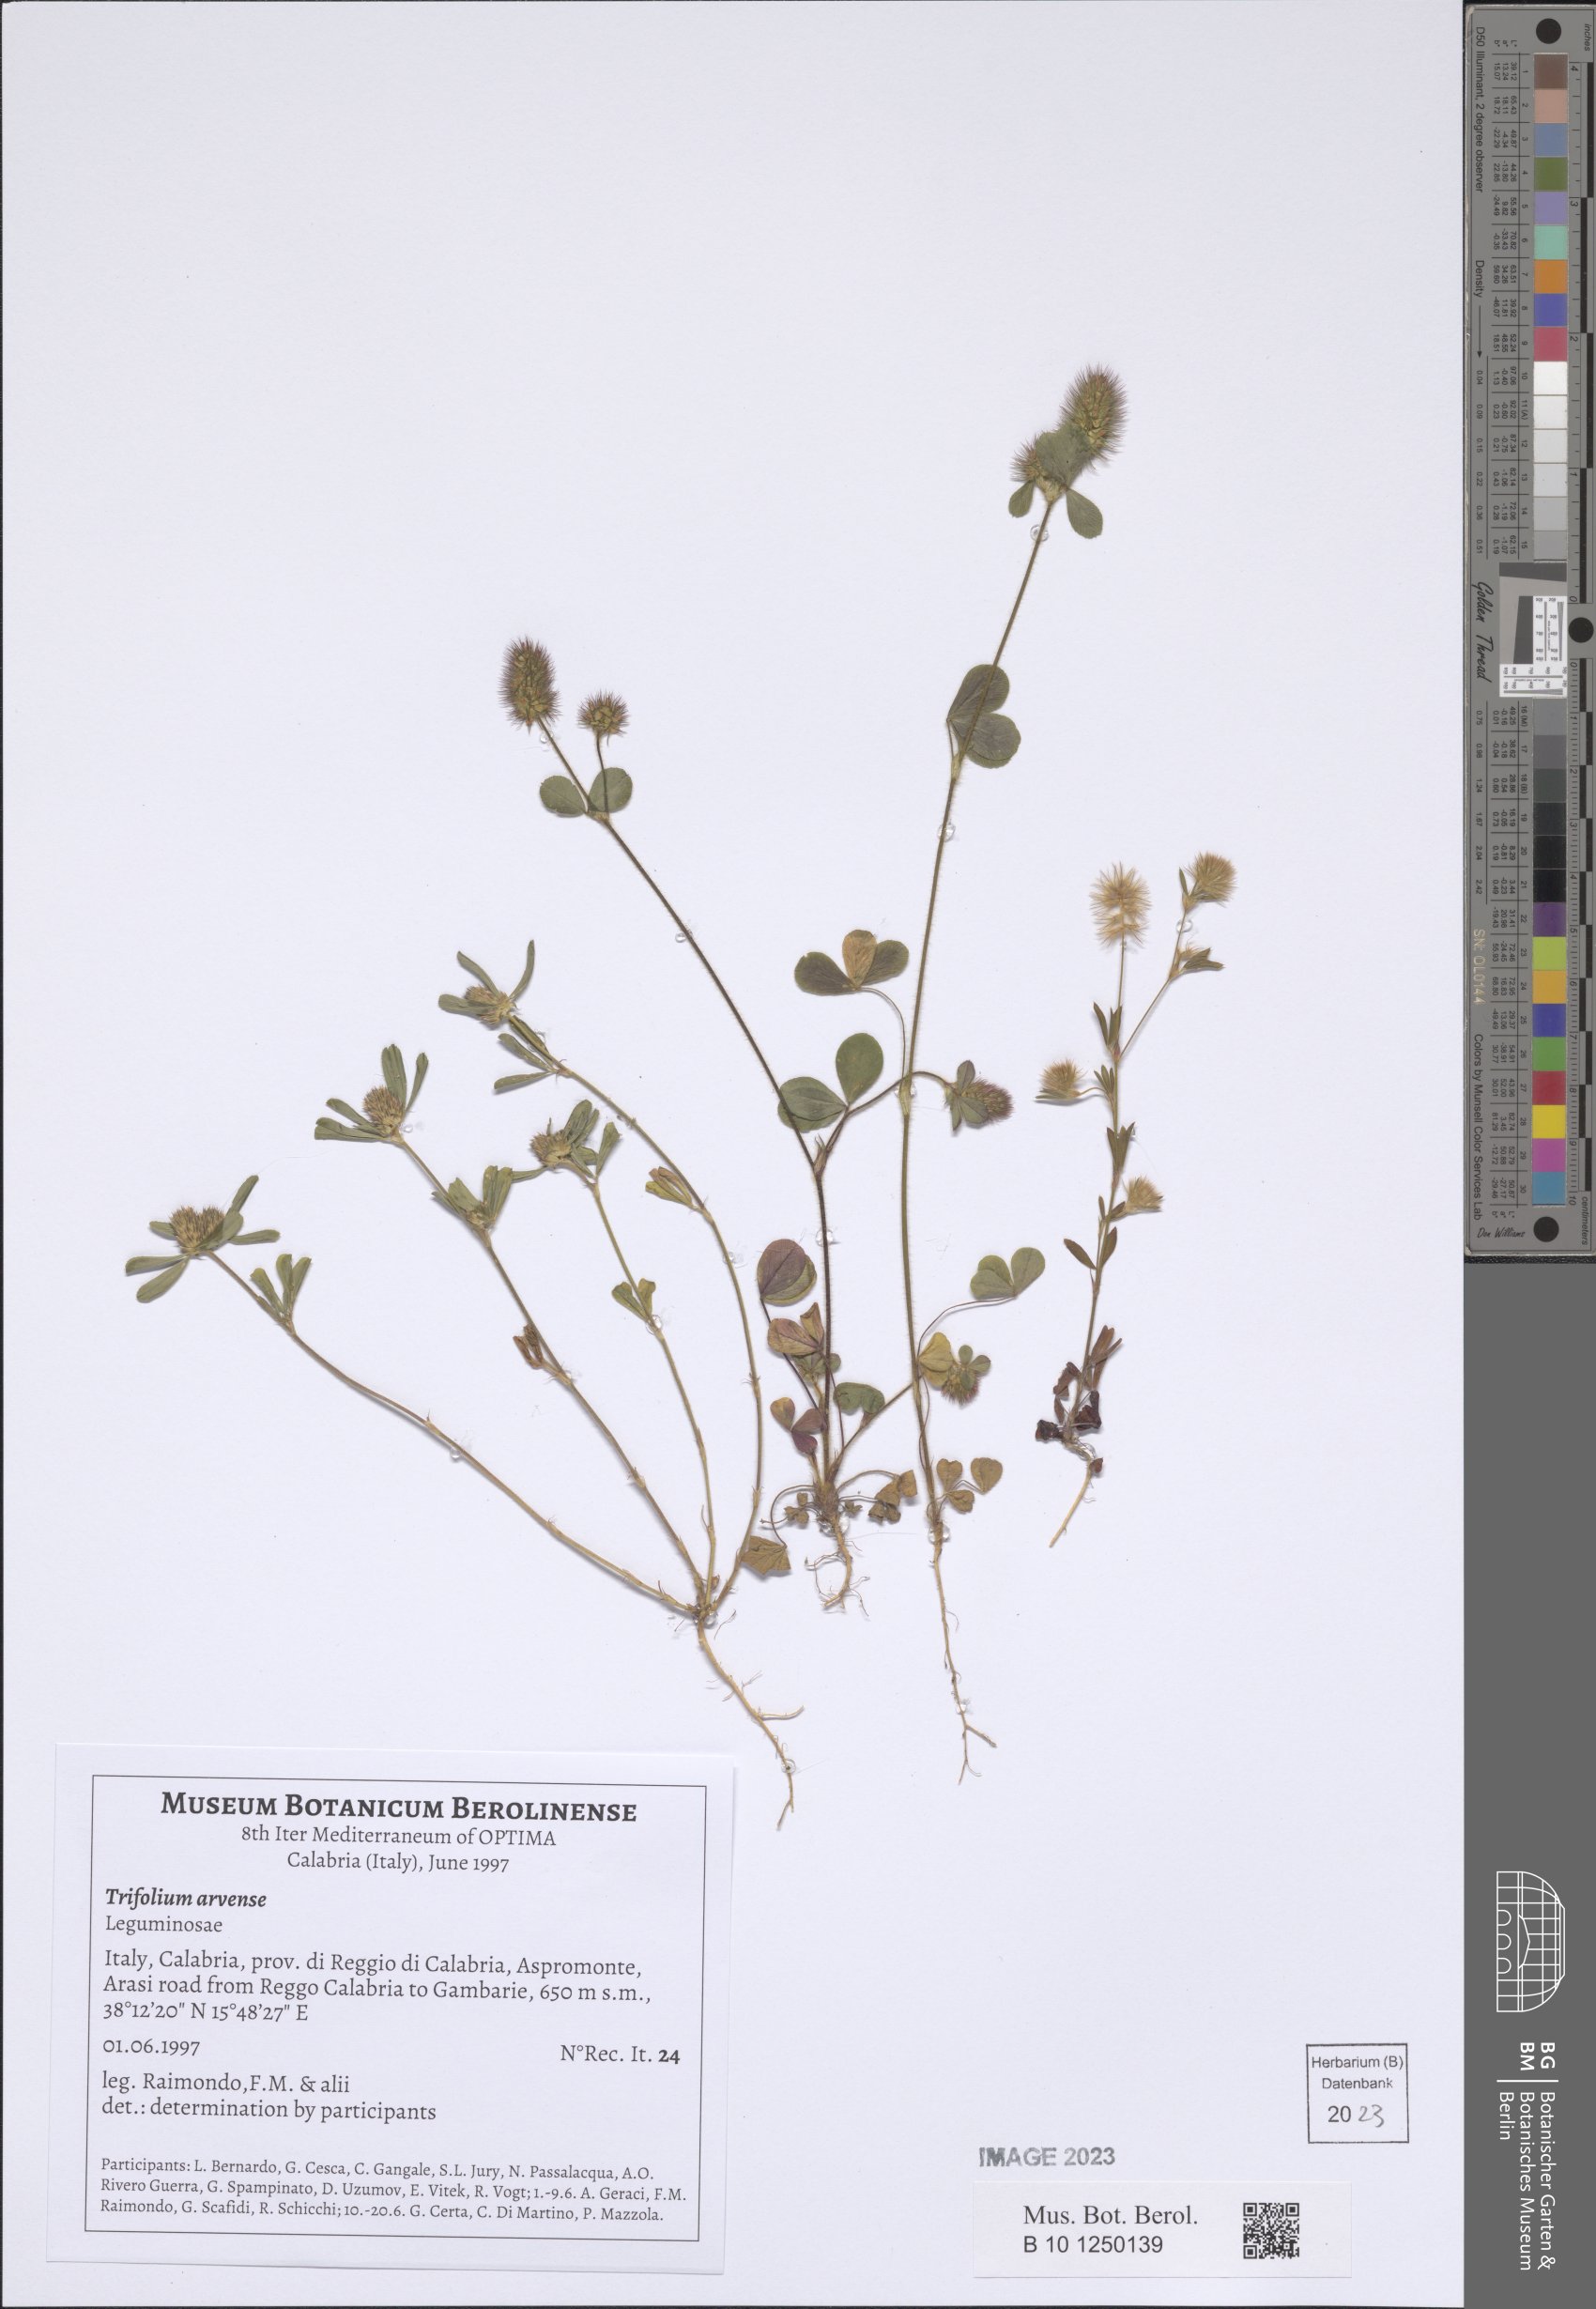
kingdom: Plantae
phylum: Tracheophyta
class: Magnoliopsida
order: Fabales
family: Fabaceae
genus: Trifolium
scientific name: Trifolium arvense
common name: Hare's-foot clover
